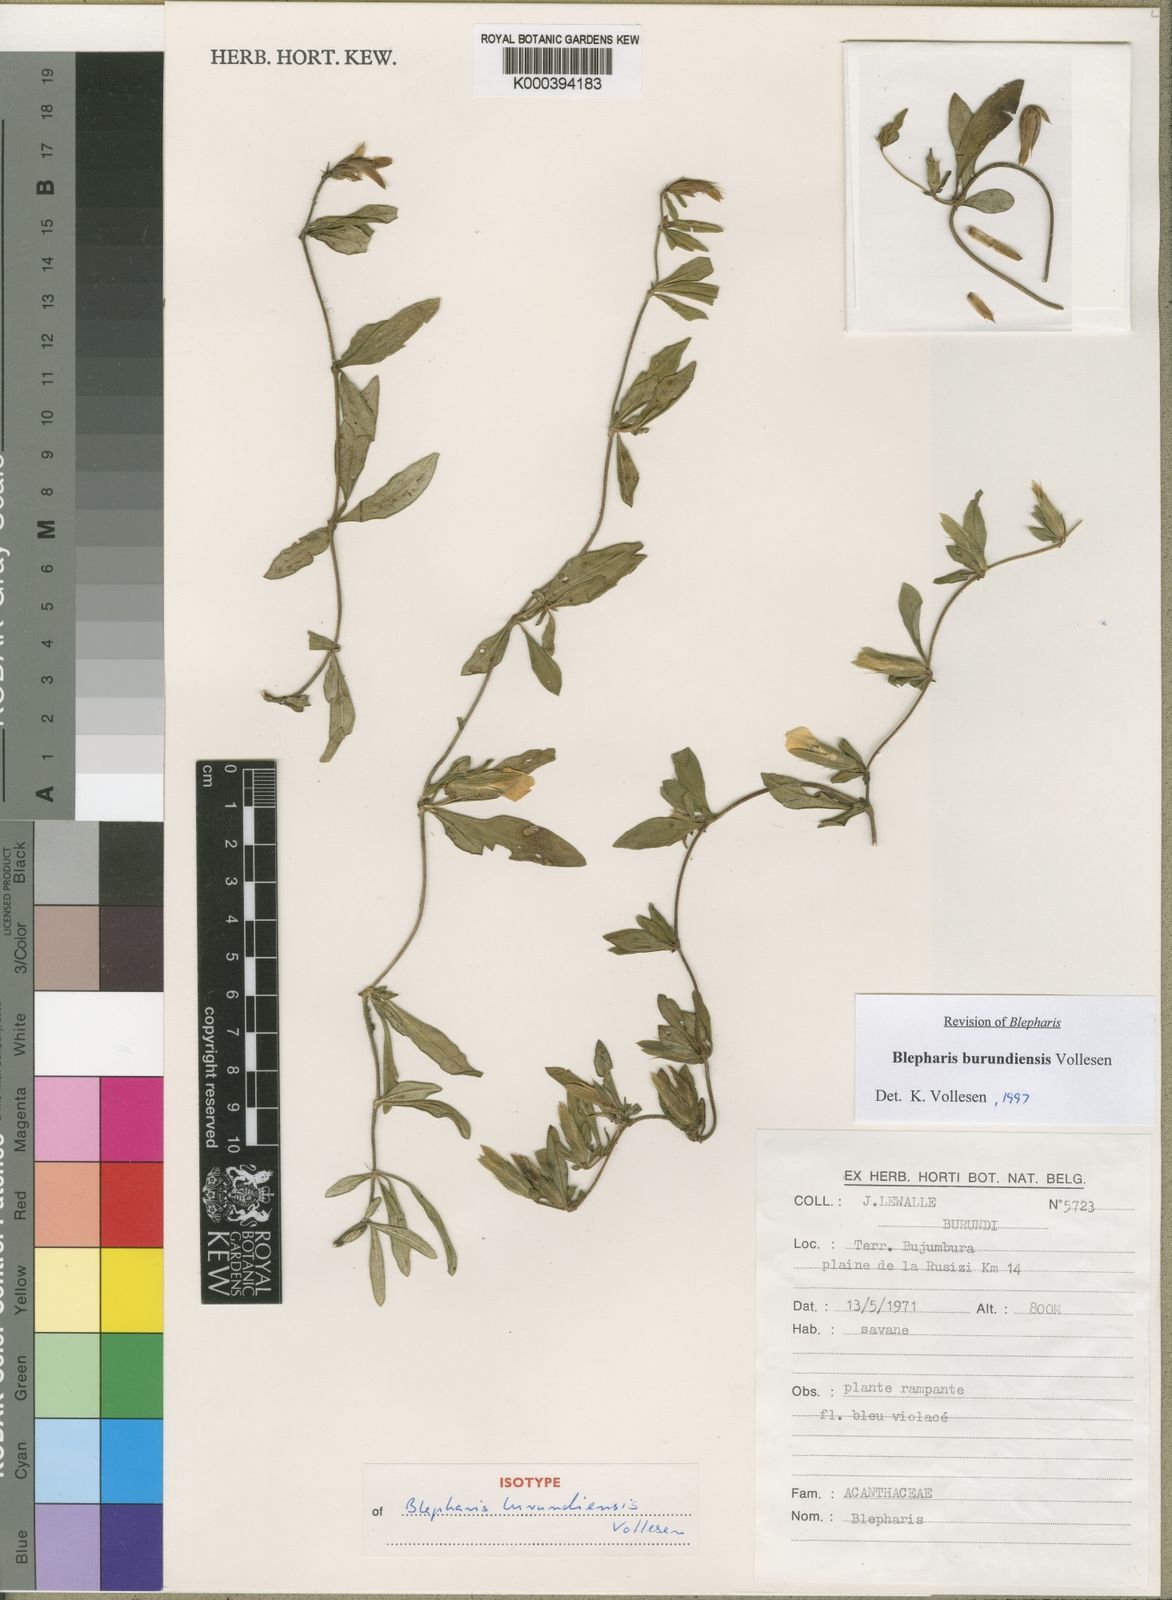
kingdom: Plantae
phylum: Tracheophyta
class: Magnoliopsida
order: Lamiales
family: Acanthaceae
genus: Blepharis
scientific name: Blepharis burundiensis
